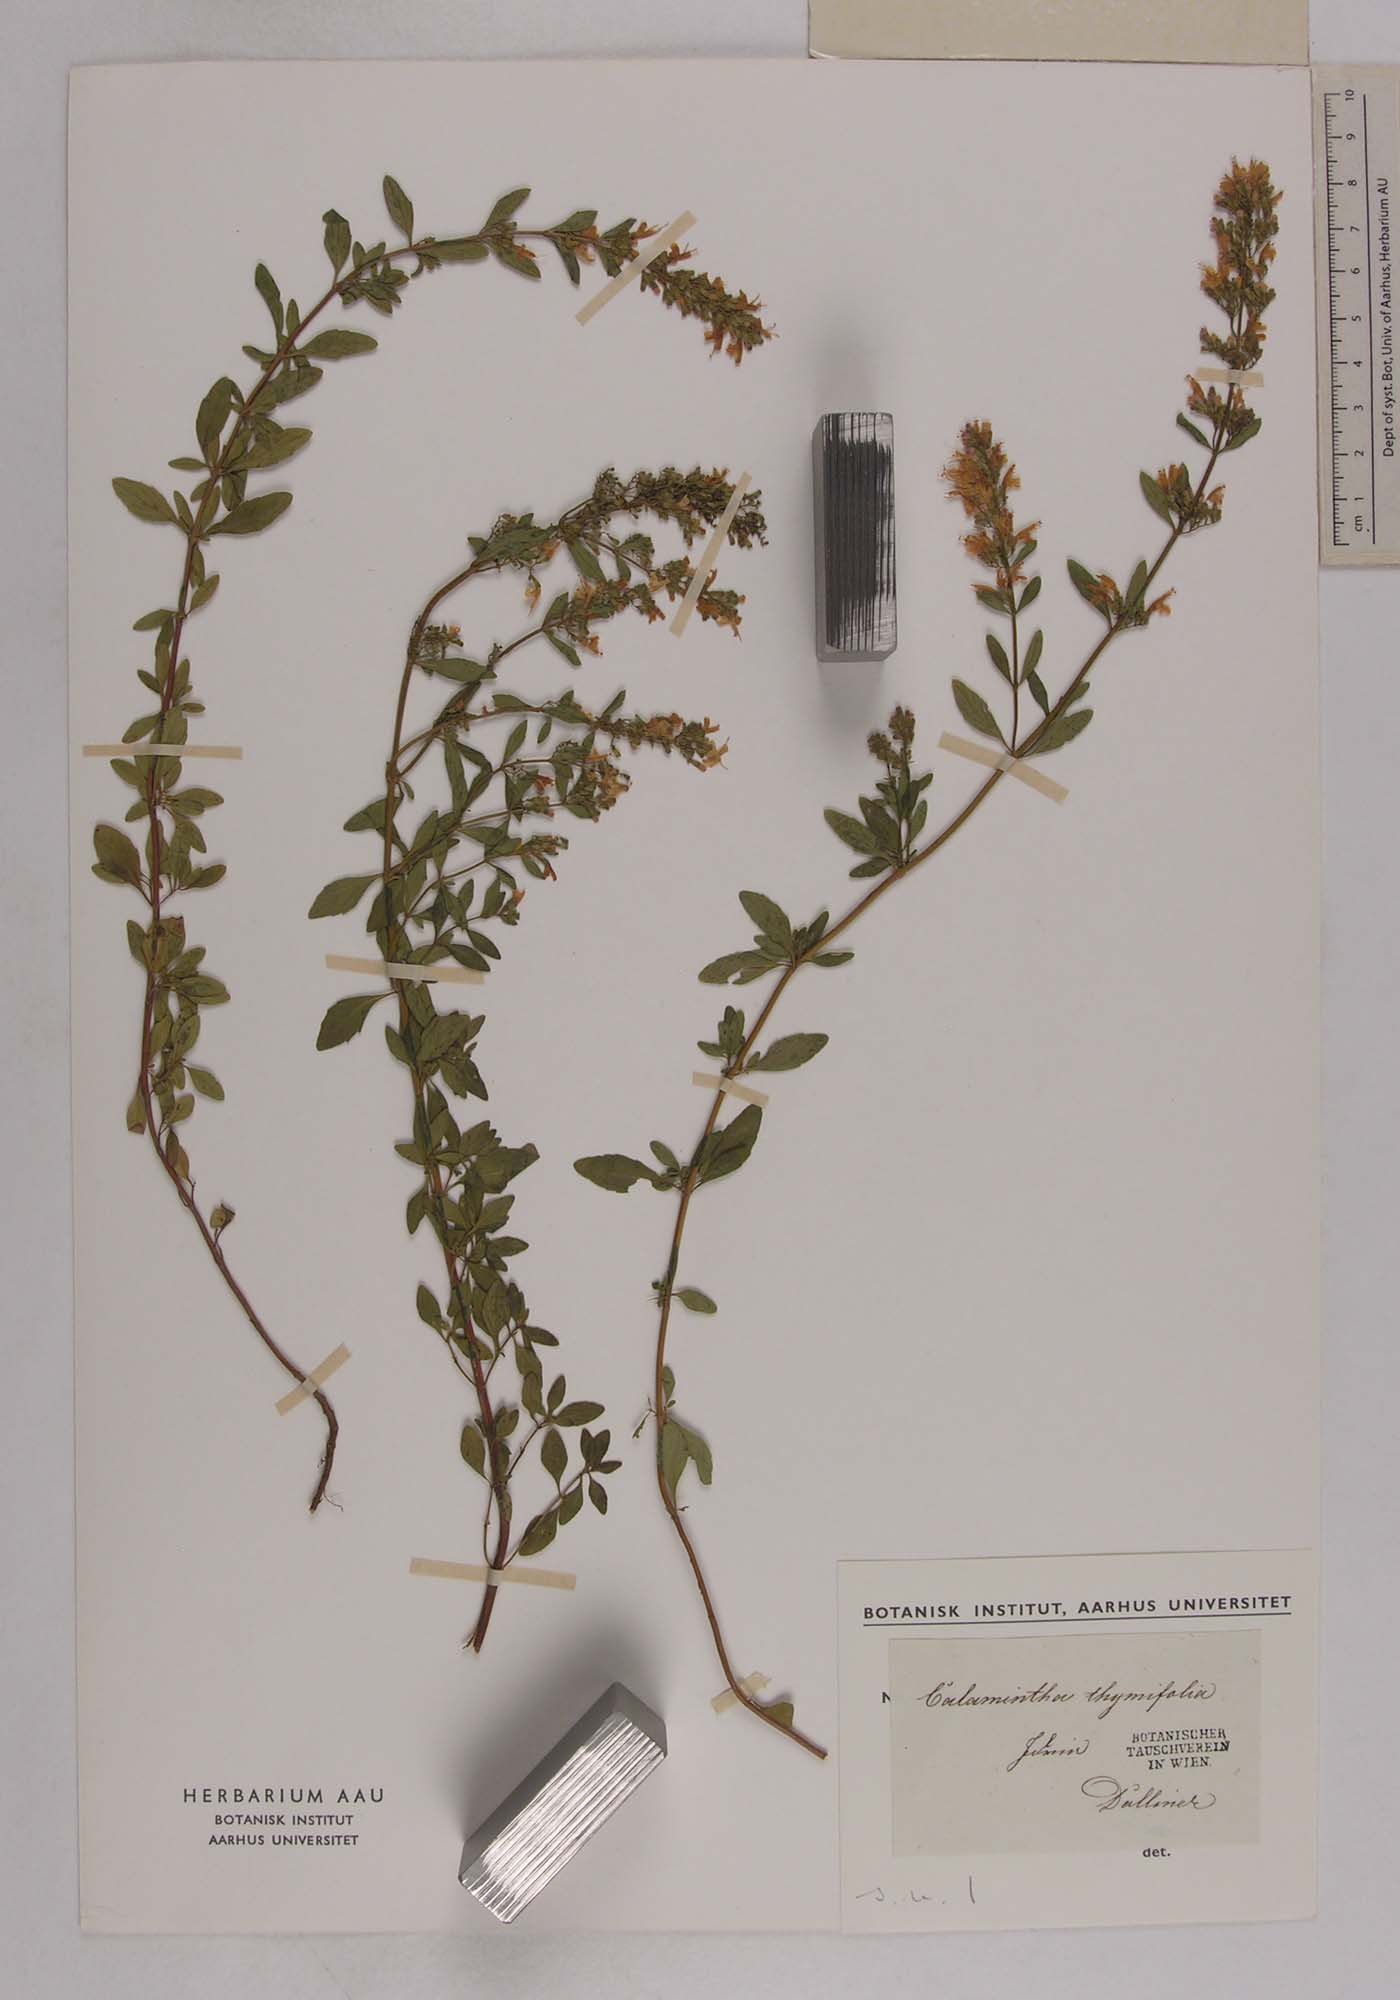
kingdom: Plantae
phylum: Tracheophyta
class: Magnoliopsida
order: Lamiales
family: Lamiaceae
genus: Clinopodium
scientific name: Clinopodium album
